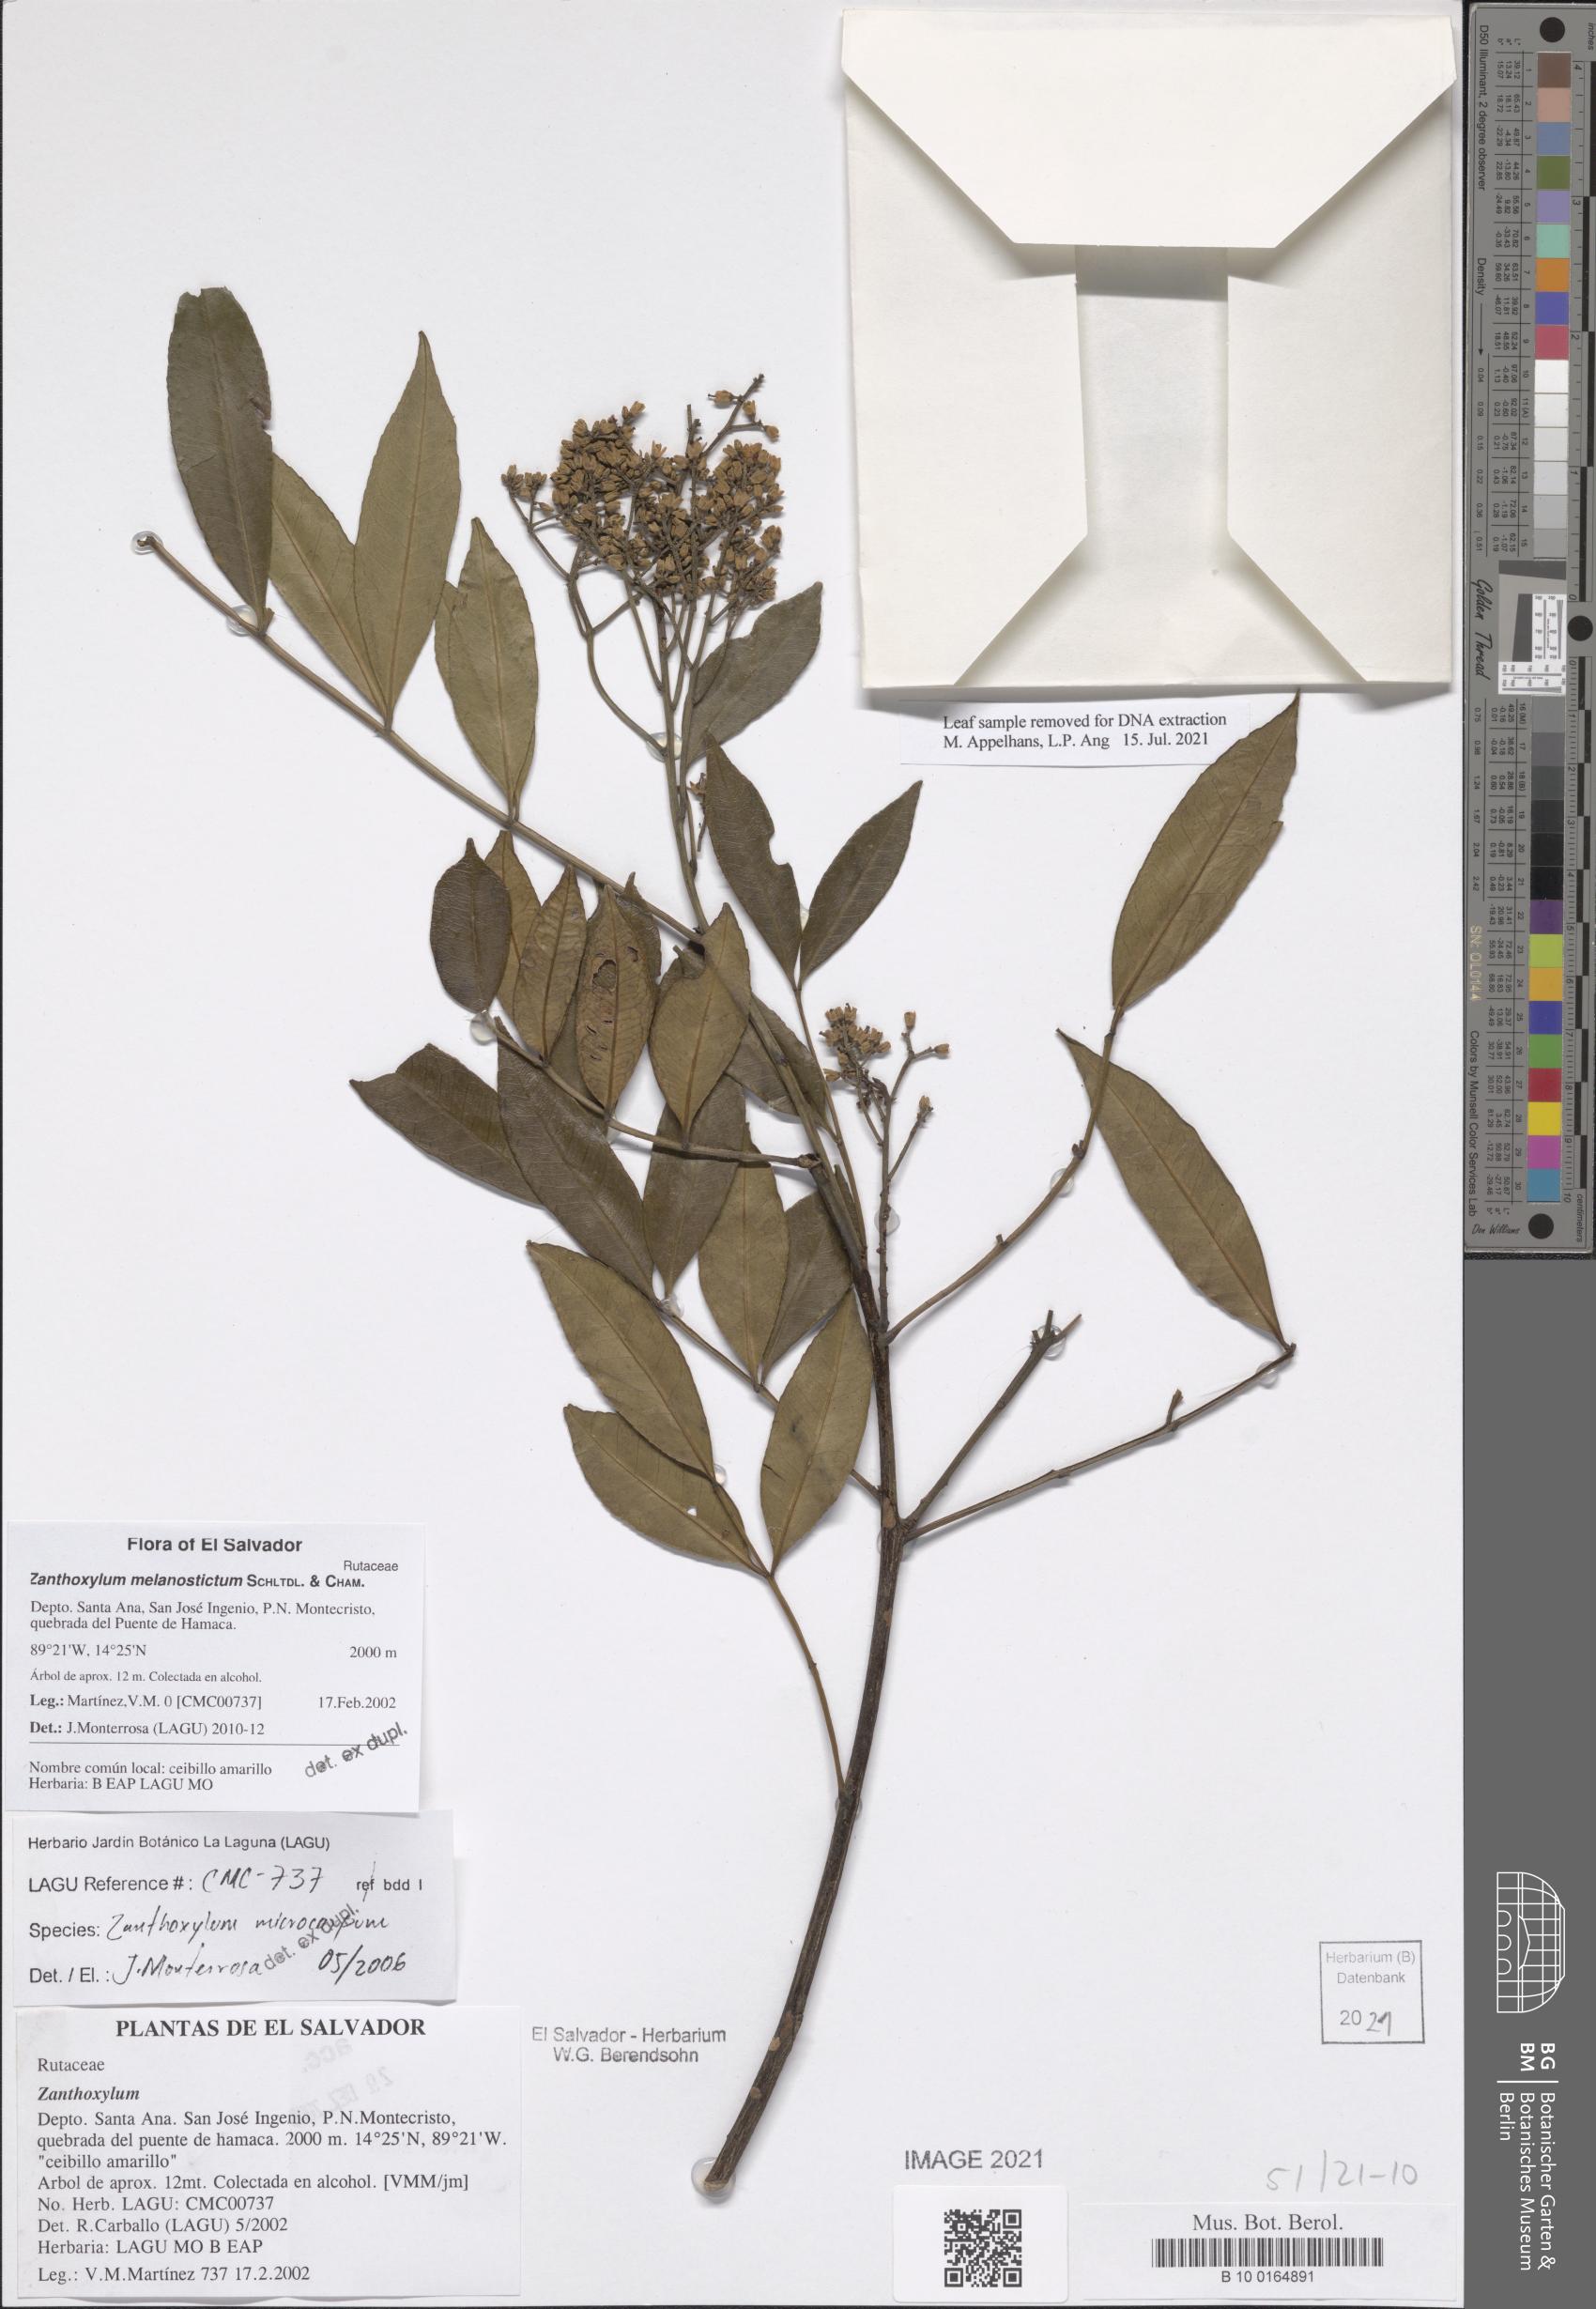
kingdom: Plantae
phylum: Tracheophyta
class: Magnoliopsida
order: Sapindales
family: Rutaceae
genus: Zanthoxylum
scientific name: Zanthoxylum melanostictum
